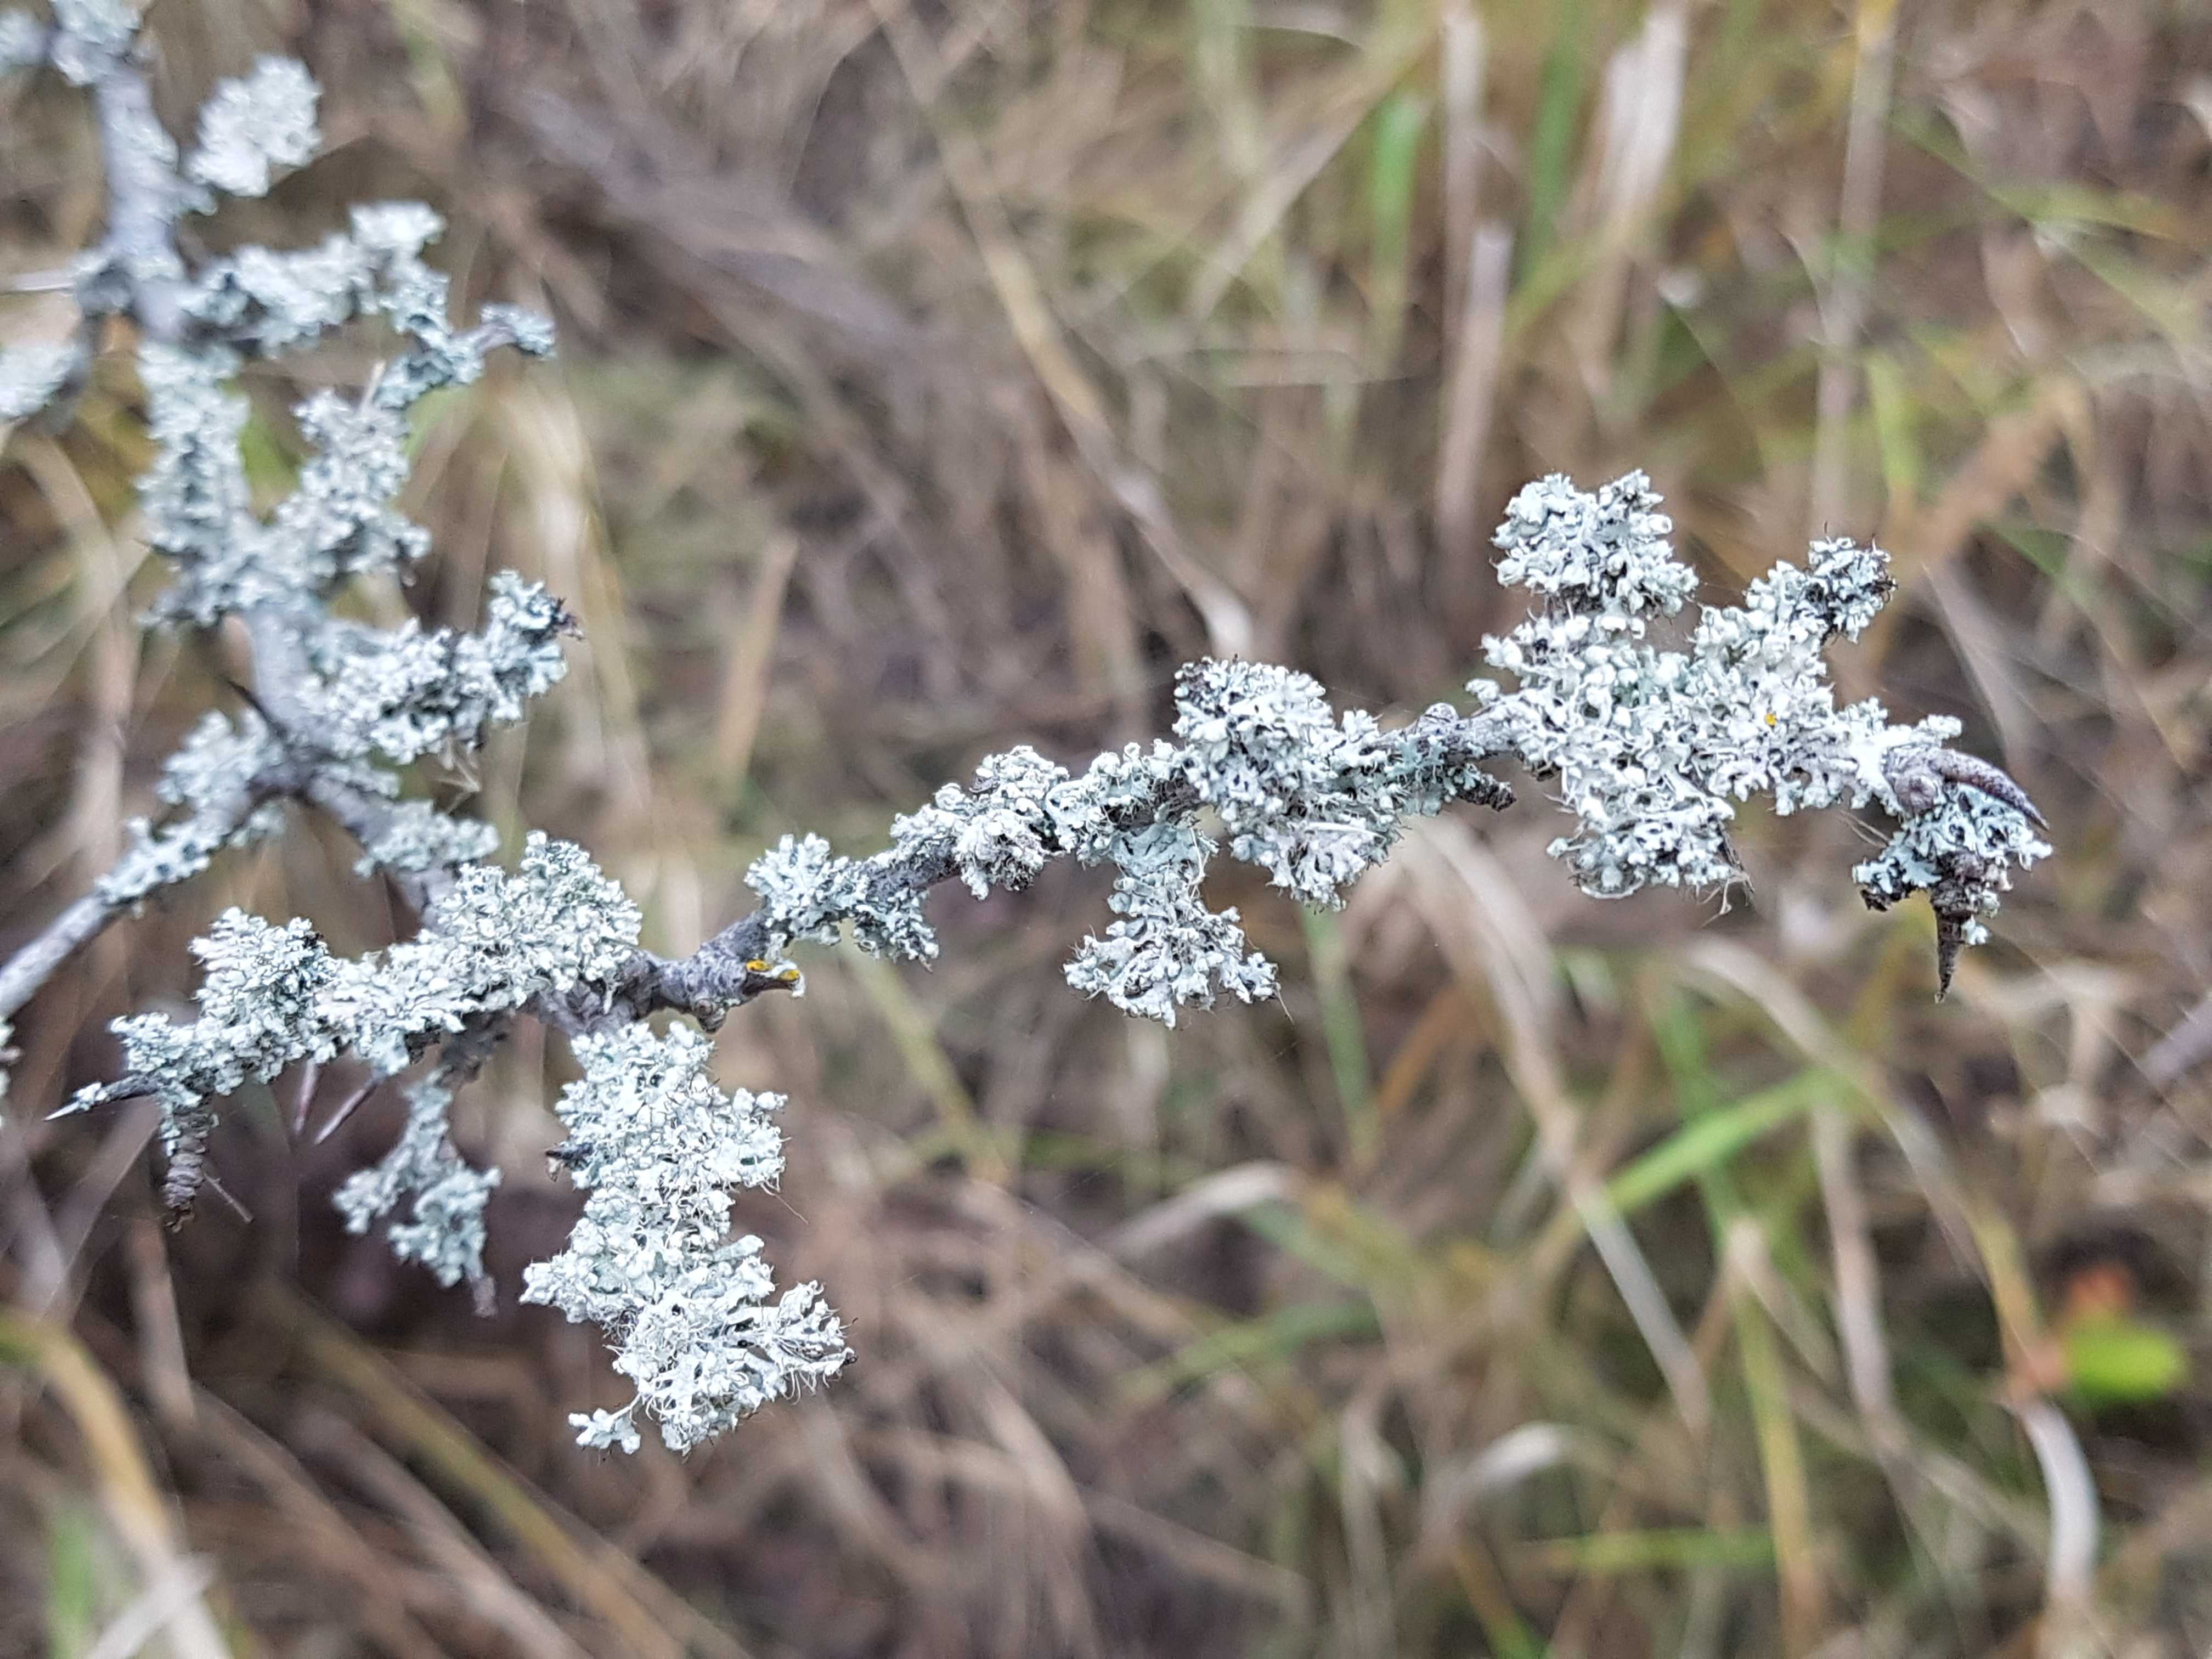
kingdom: Fungi
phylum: Ascomycota
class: Lecanoromycetes
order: Caliciales
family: Physciaceae
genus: Physcia
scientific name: Physcia adscendens
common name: hætte-rosetlav
